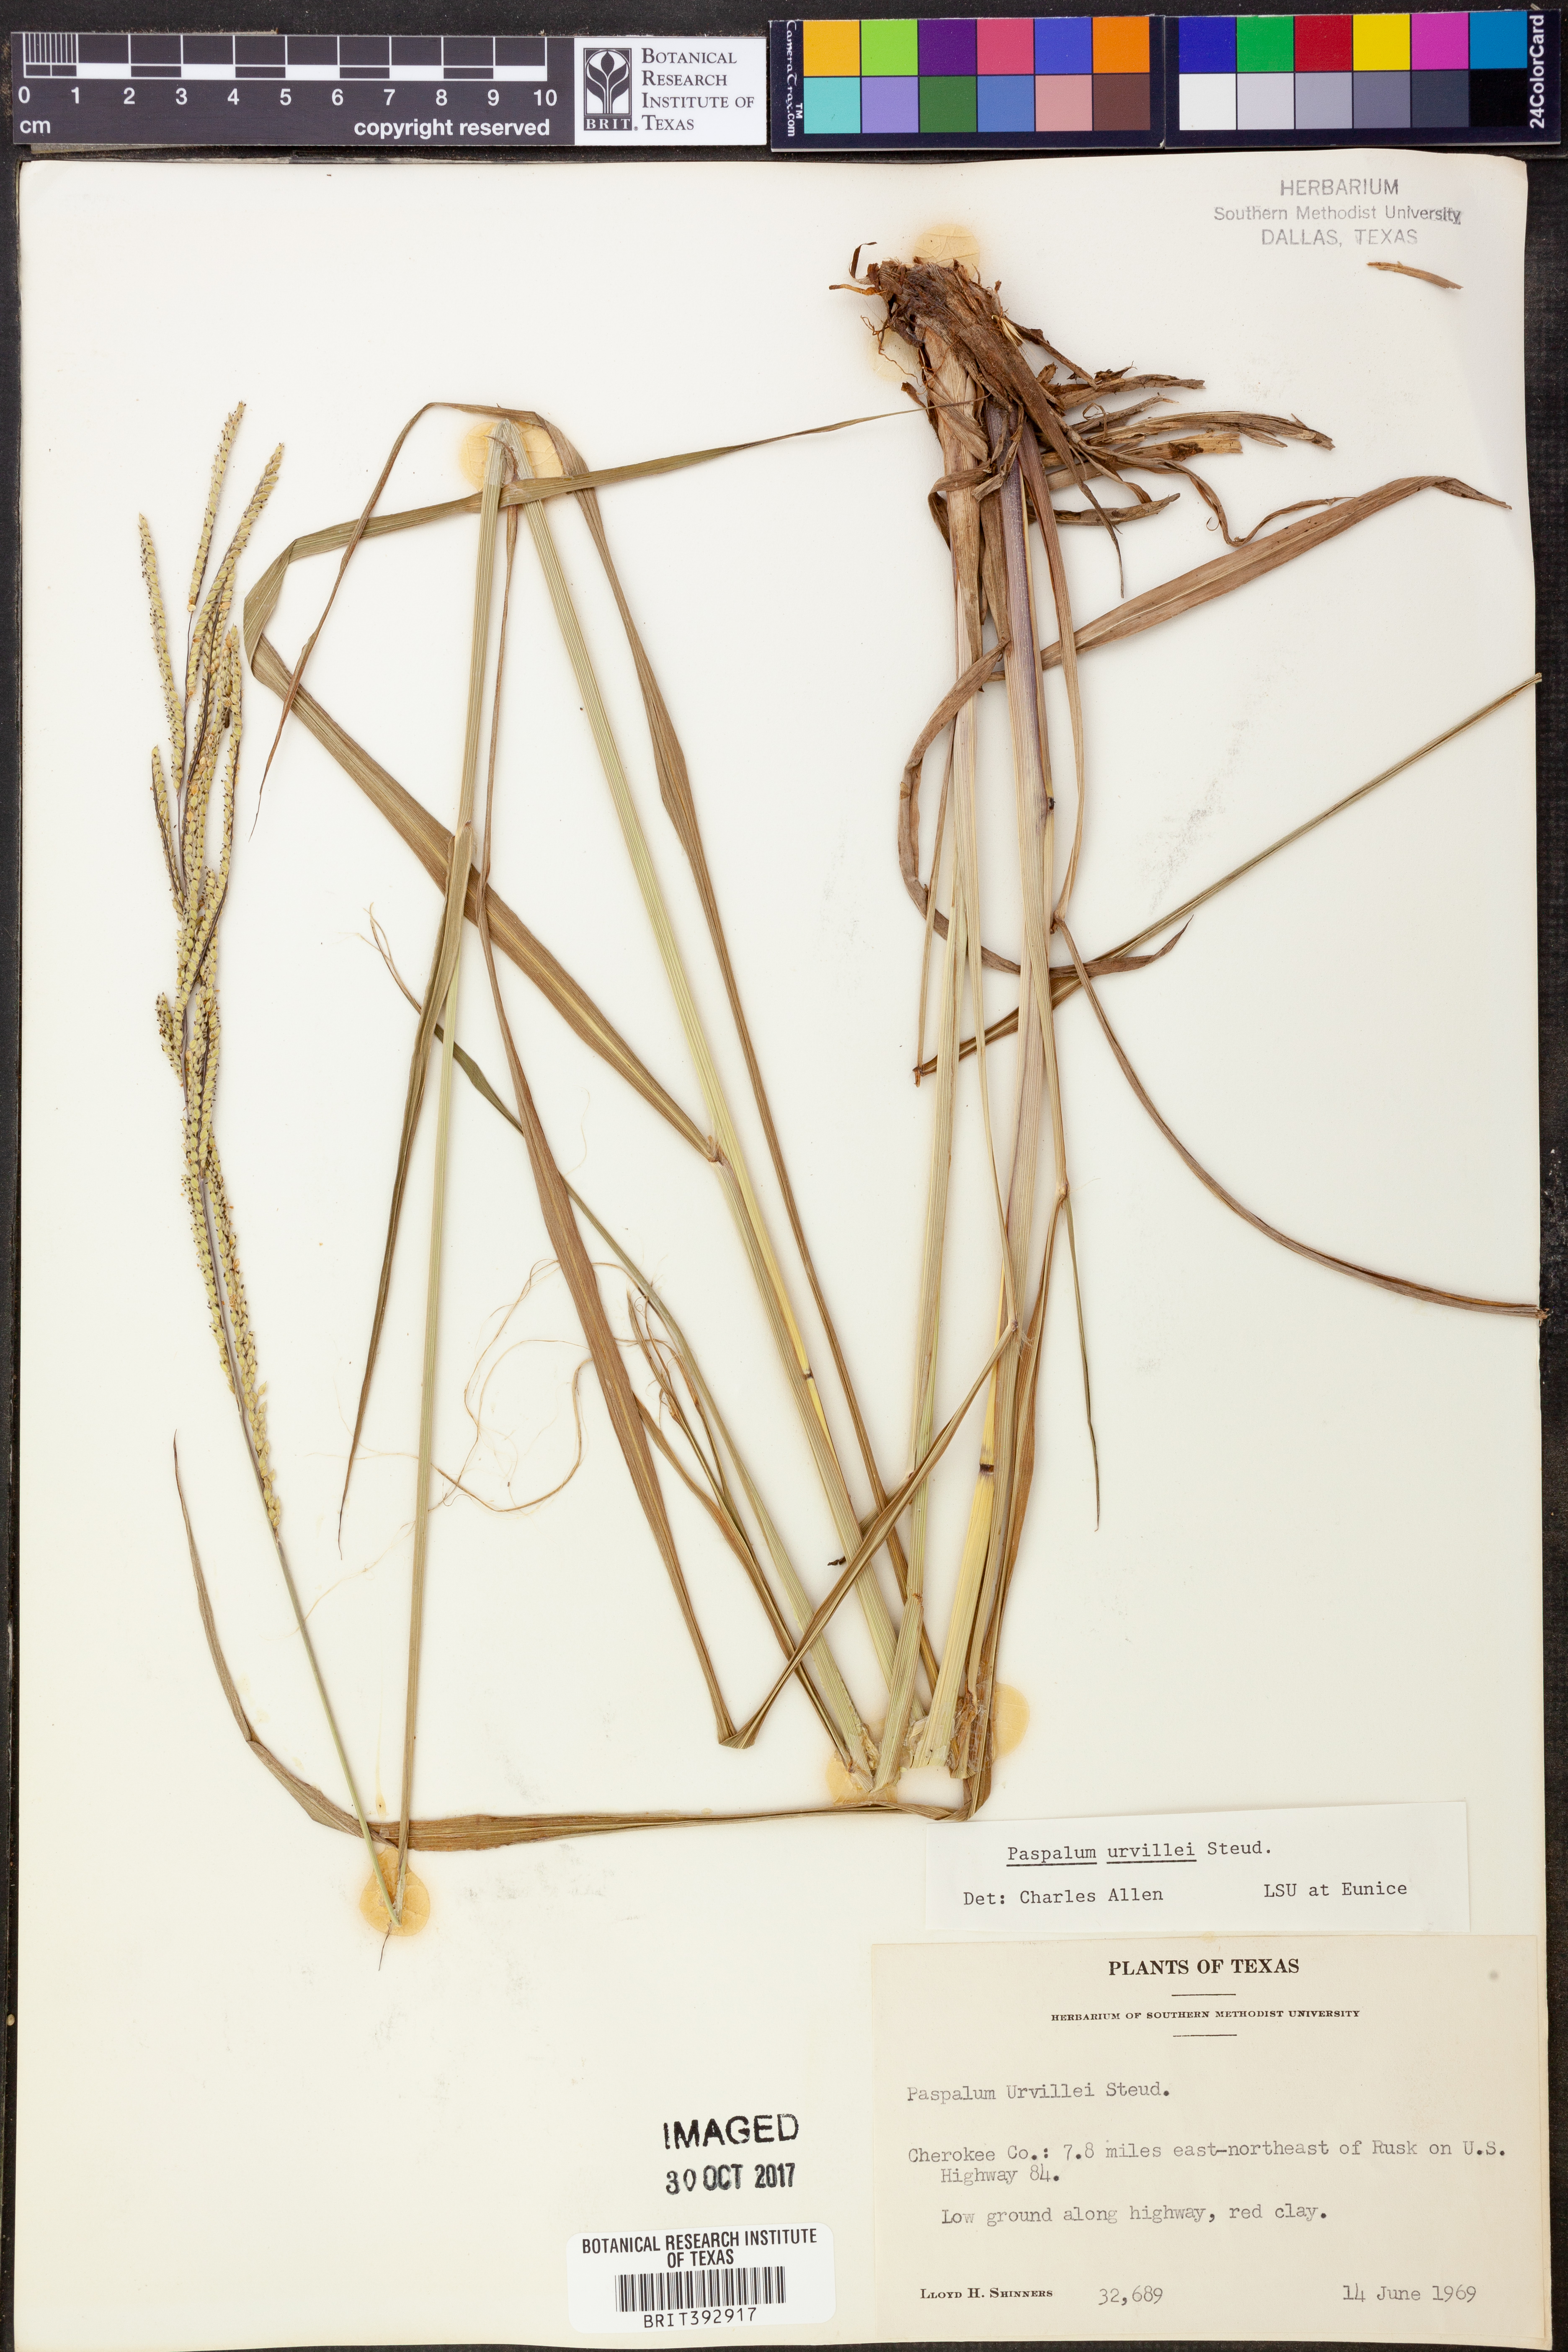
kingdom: Plantae
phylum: Tracheophyta
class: Liliopsida
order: Poales
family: Poaceae
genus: Paspalum
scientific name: Paspalum urvillei
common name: Vasey's grass
